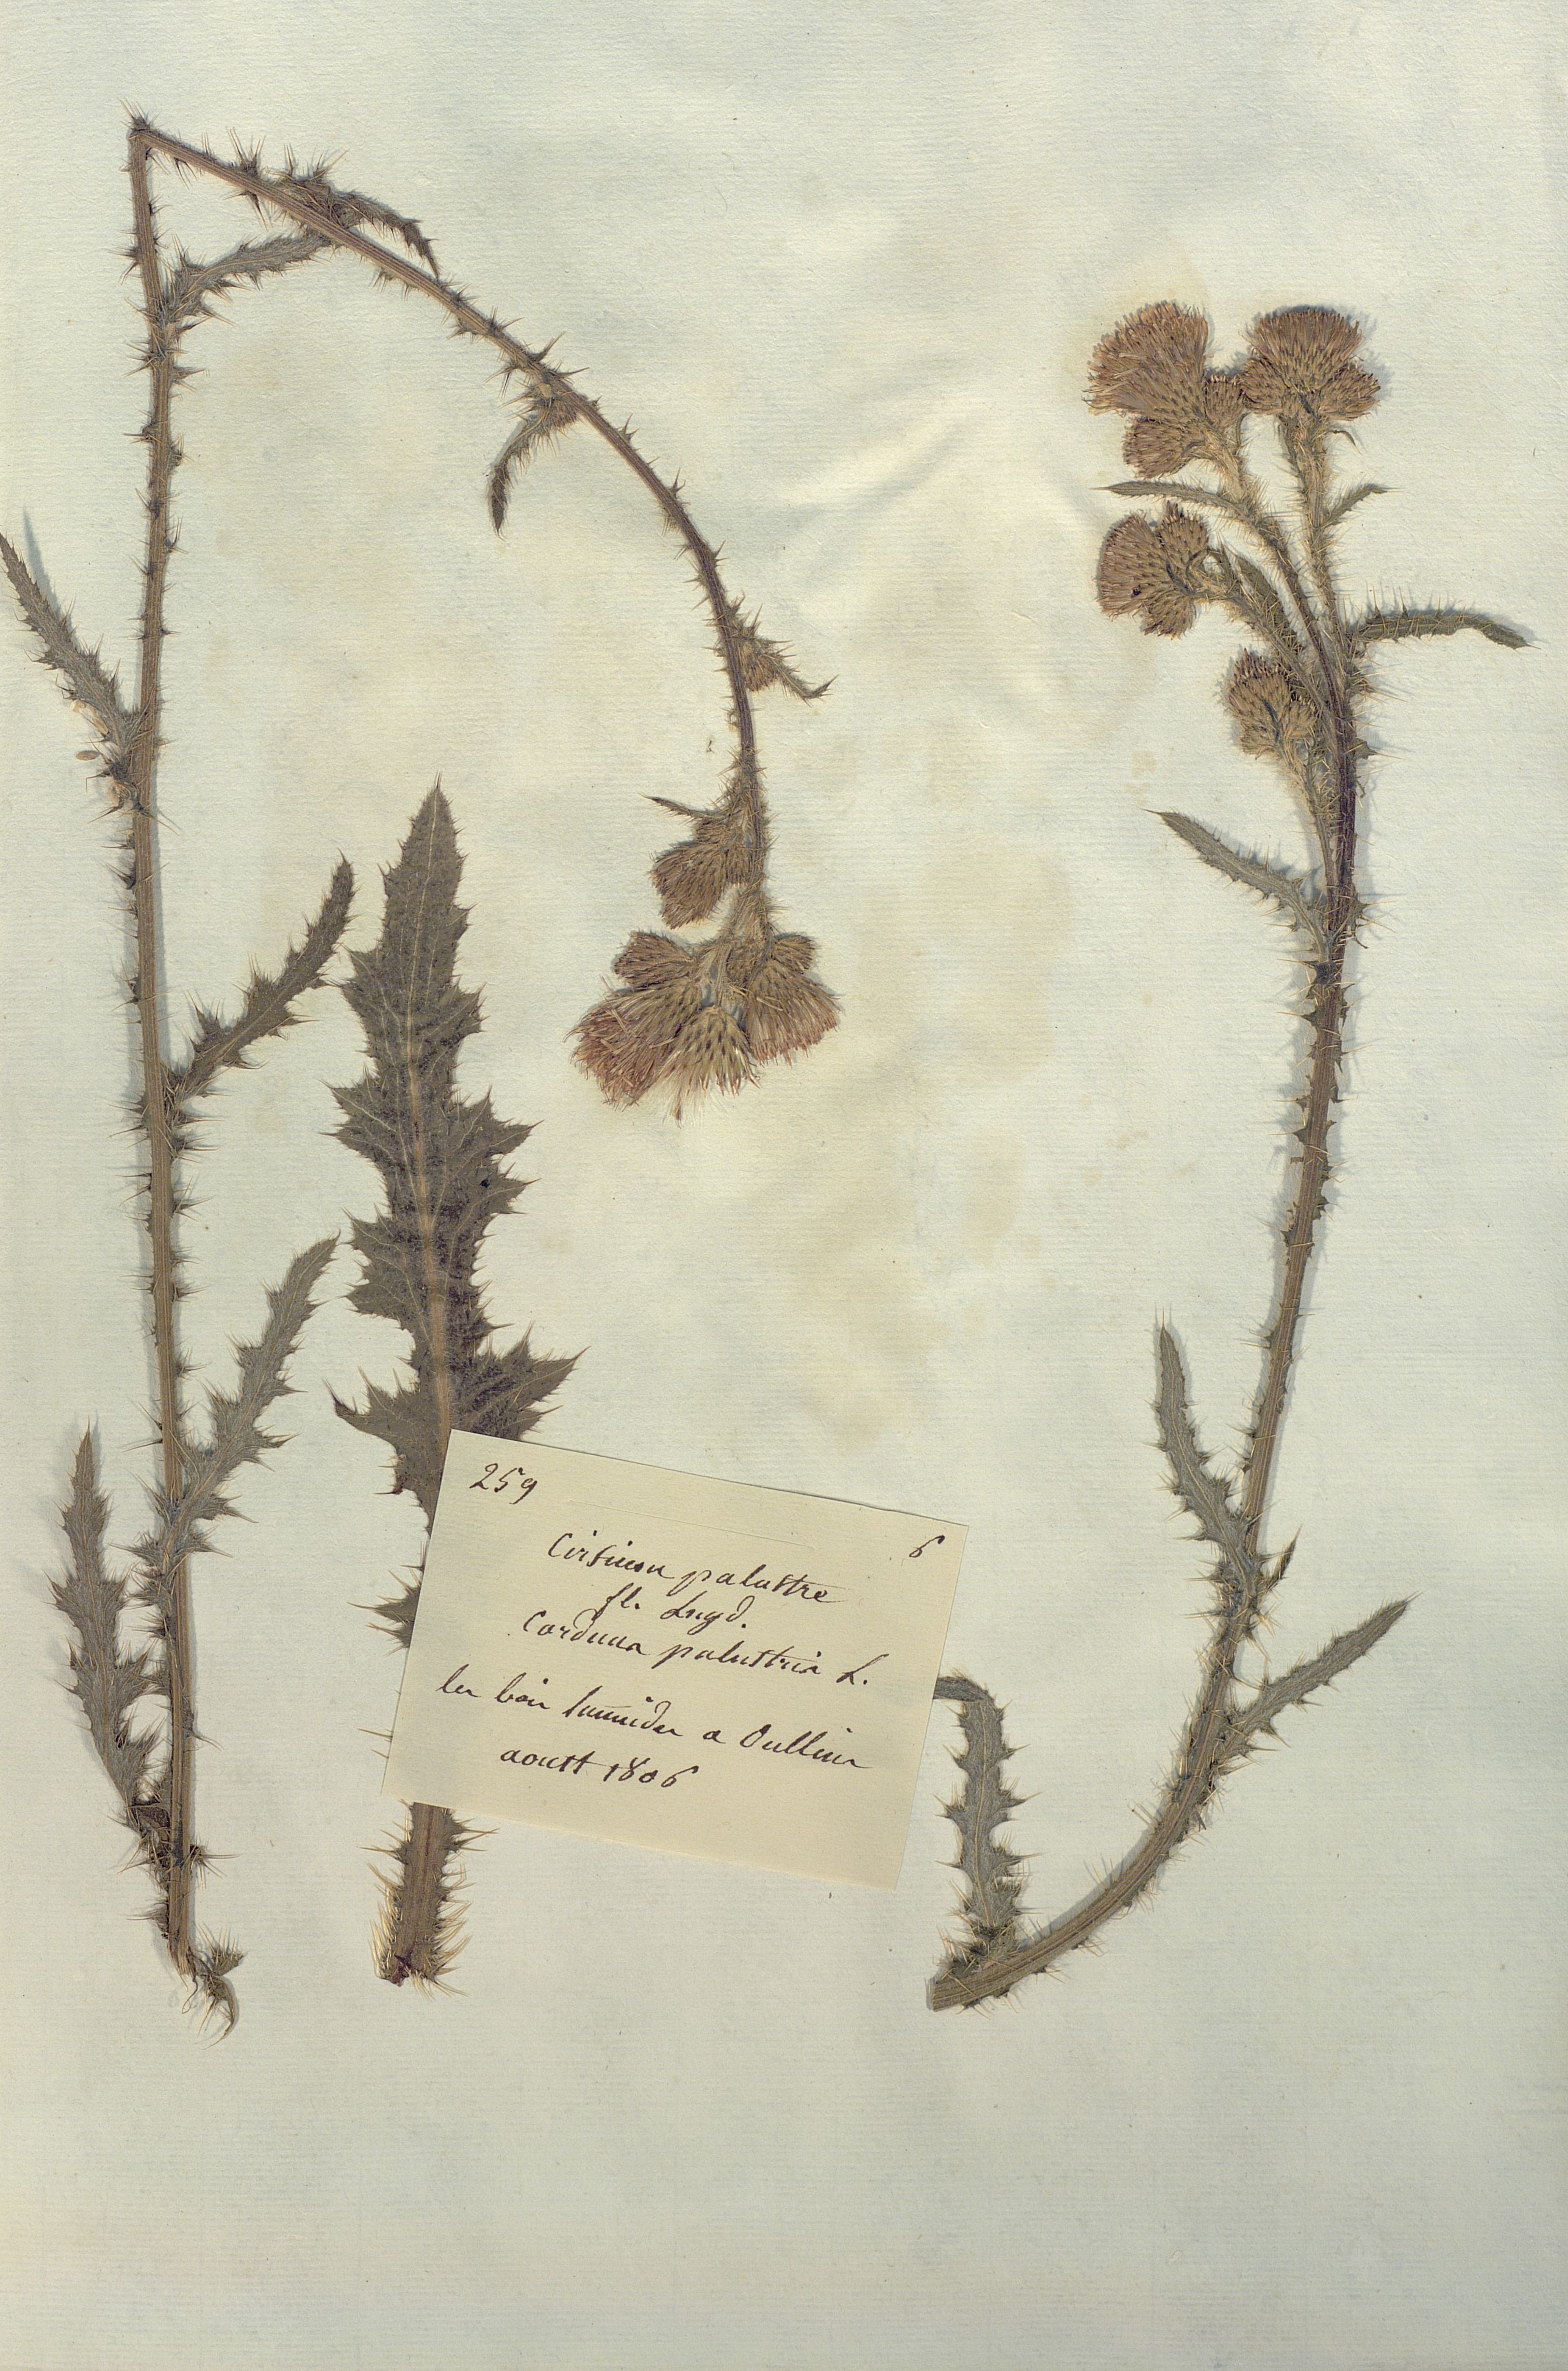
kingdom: Plantae
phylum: Tracheophyta
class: Magnoliopsida
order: Asterales
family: Asteraceae
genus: Cirsium
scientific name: Cirsium palustre
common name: Marsh thistle
